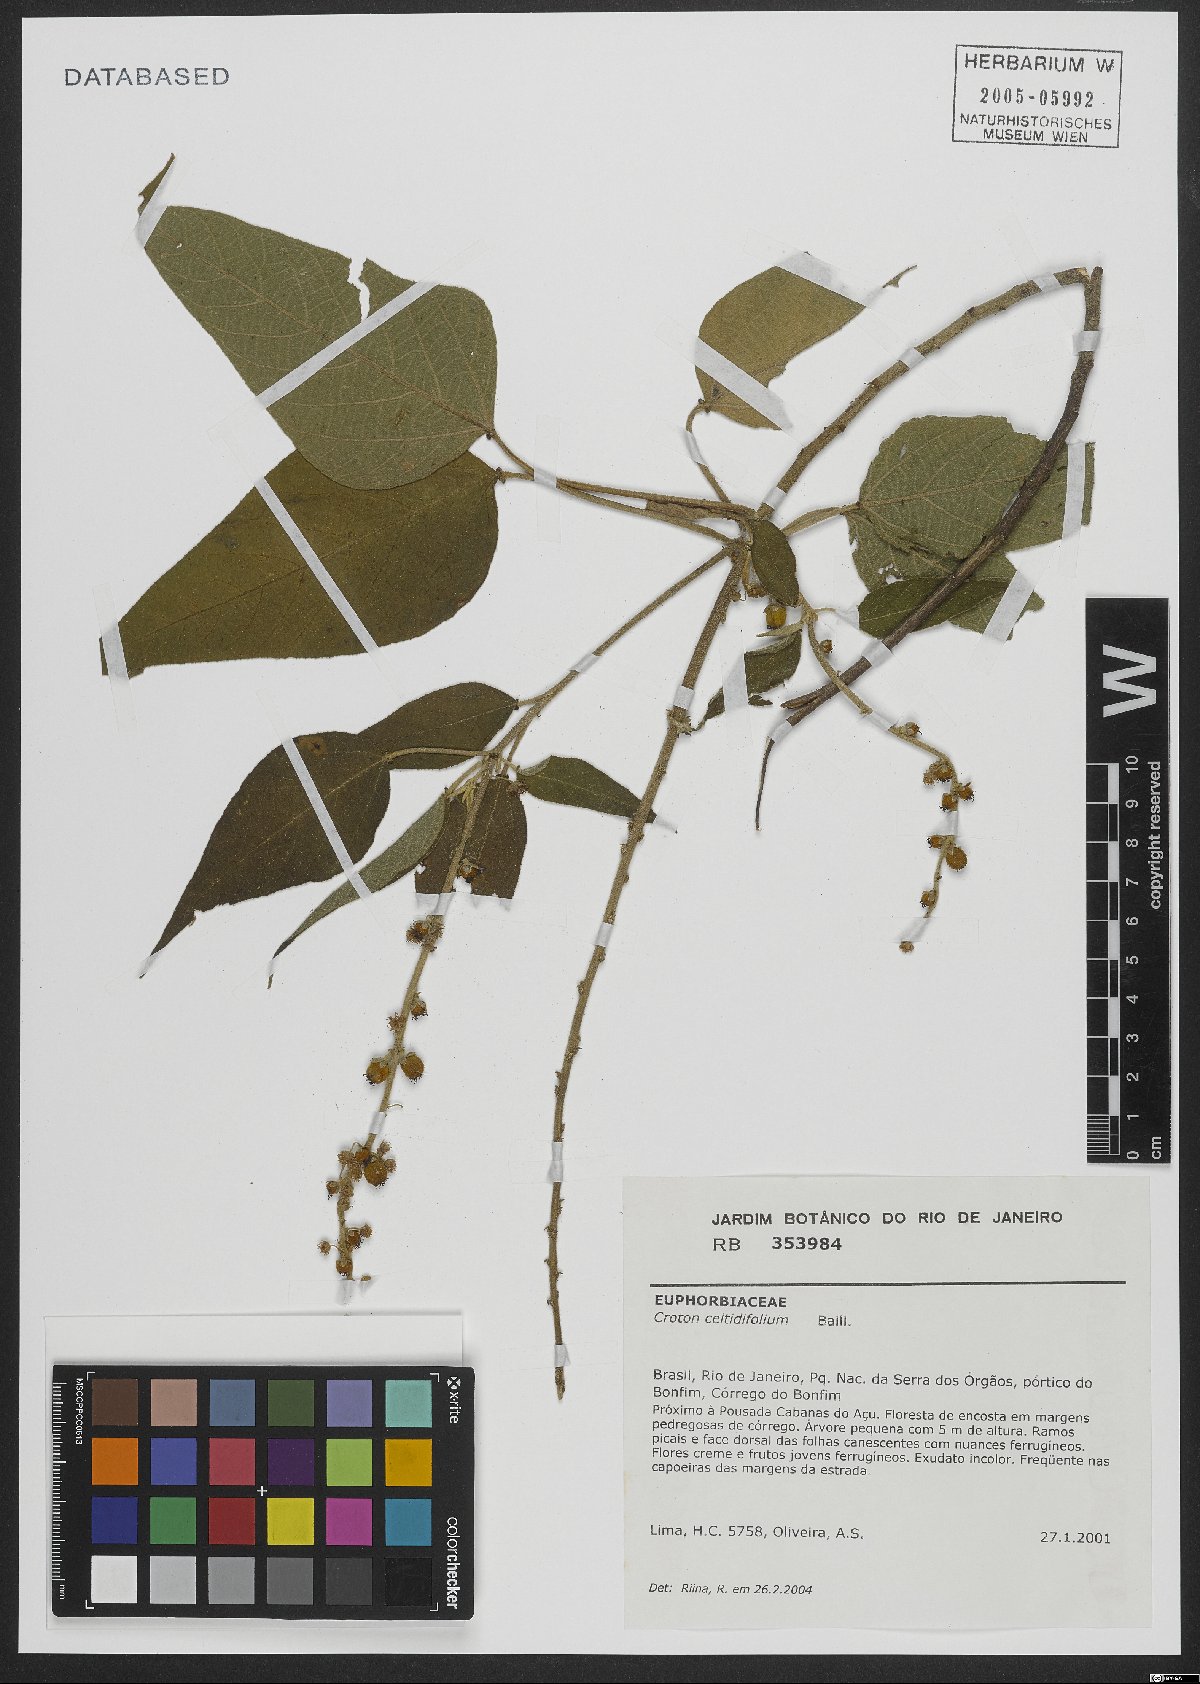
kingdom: Plantae
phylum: Tracheophyta
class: Magnoliopsida
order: Malpighiales
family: Euphorbiaceae
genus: Croton
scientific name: Croton celtidifolius
